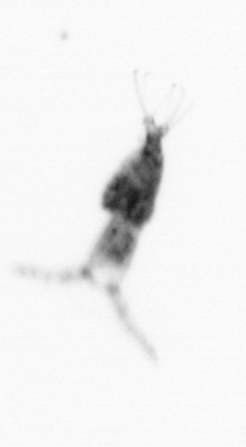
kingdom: Animalia
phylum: Arthropoda
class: Copepoda
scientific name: Copepoda
